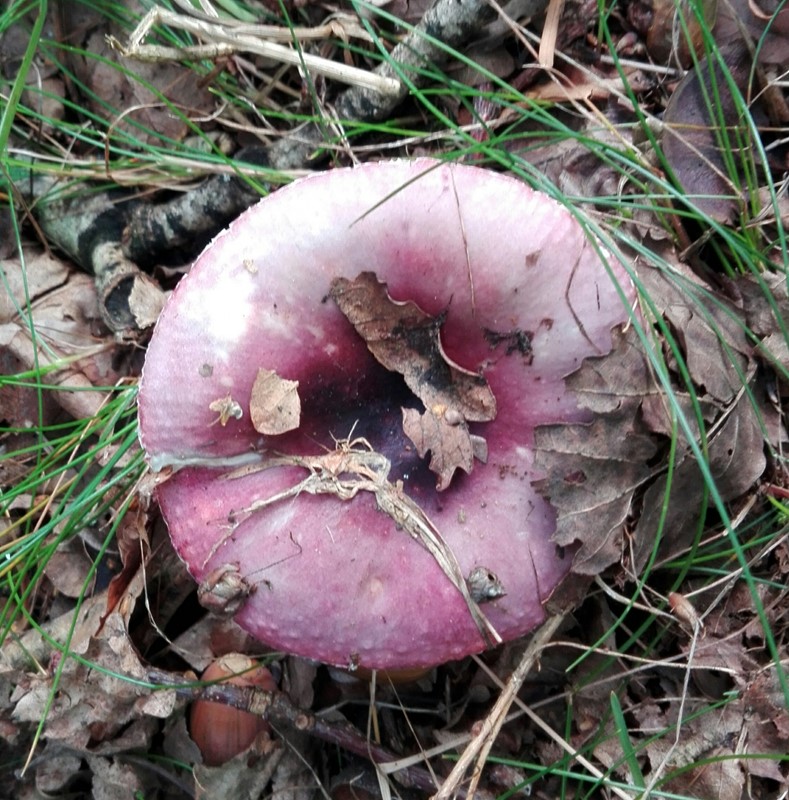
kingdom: Fungi
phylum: Basidiomycota
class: Agaricomycetes
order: Russulales
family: Russulaceae
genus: Russula
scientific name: Russula
